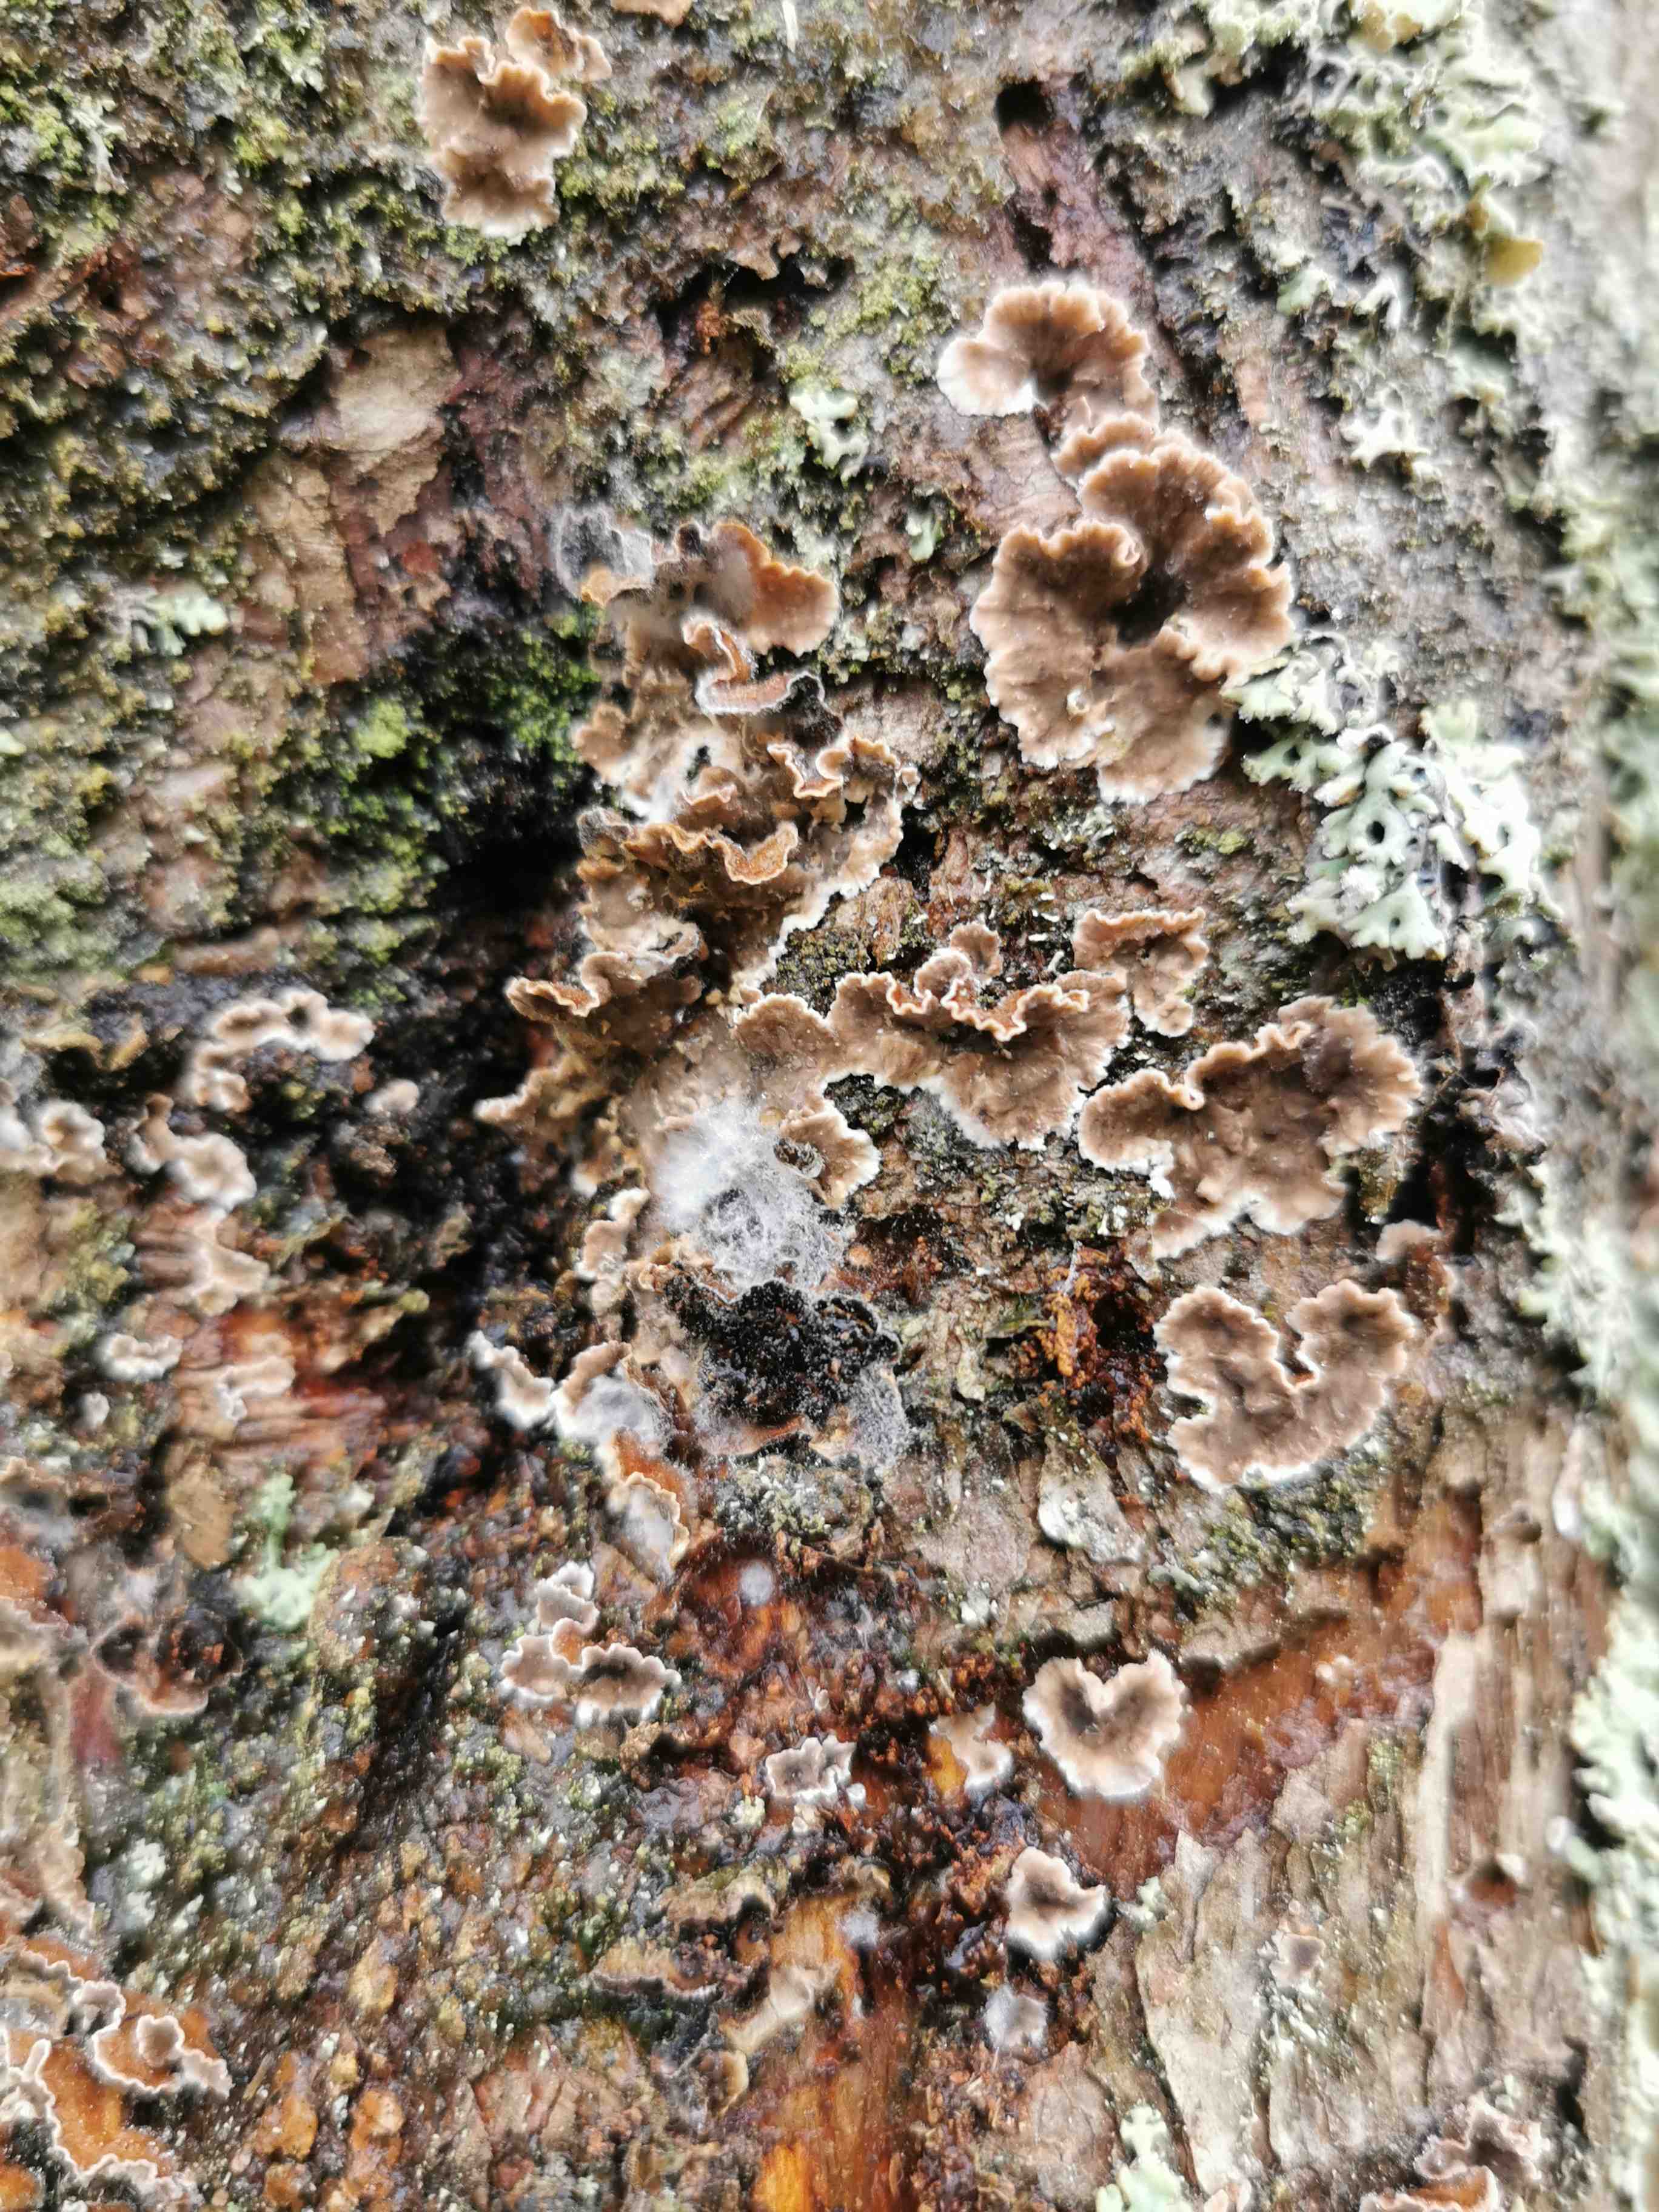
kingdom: Fungi
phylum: Basidiomycota
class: Agaricomycetes
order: Russulales
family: Stereaceae
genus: Stereum
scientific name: Stereum sanguinolentum
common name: blødende lædersvamp
